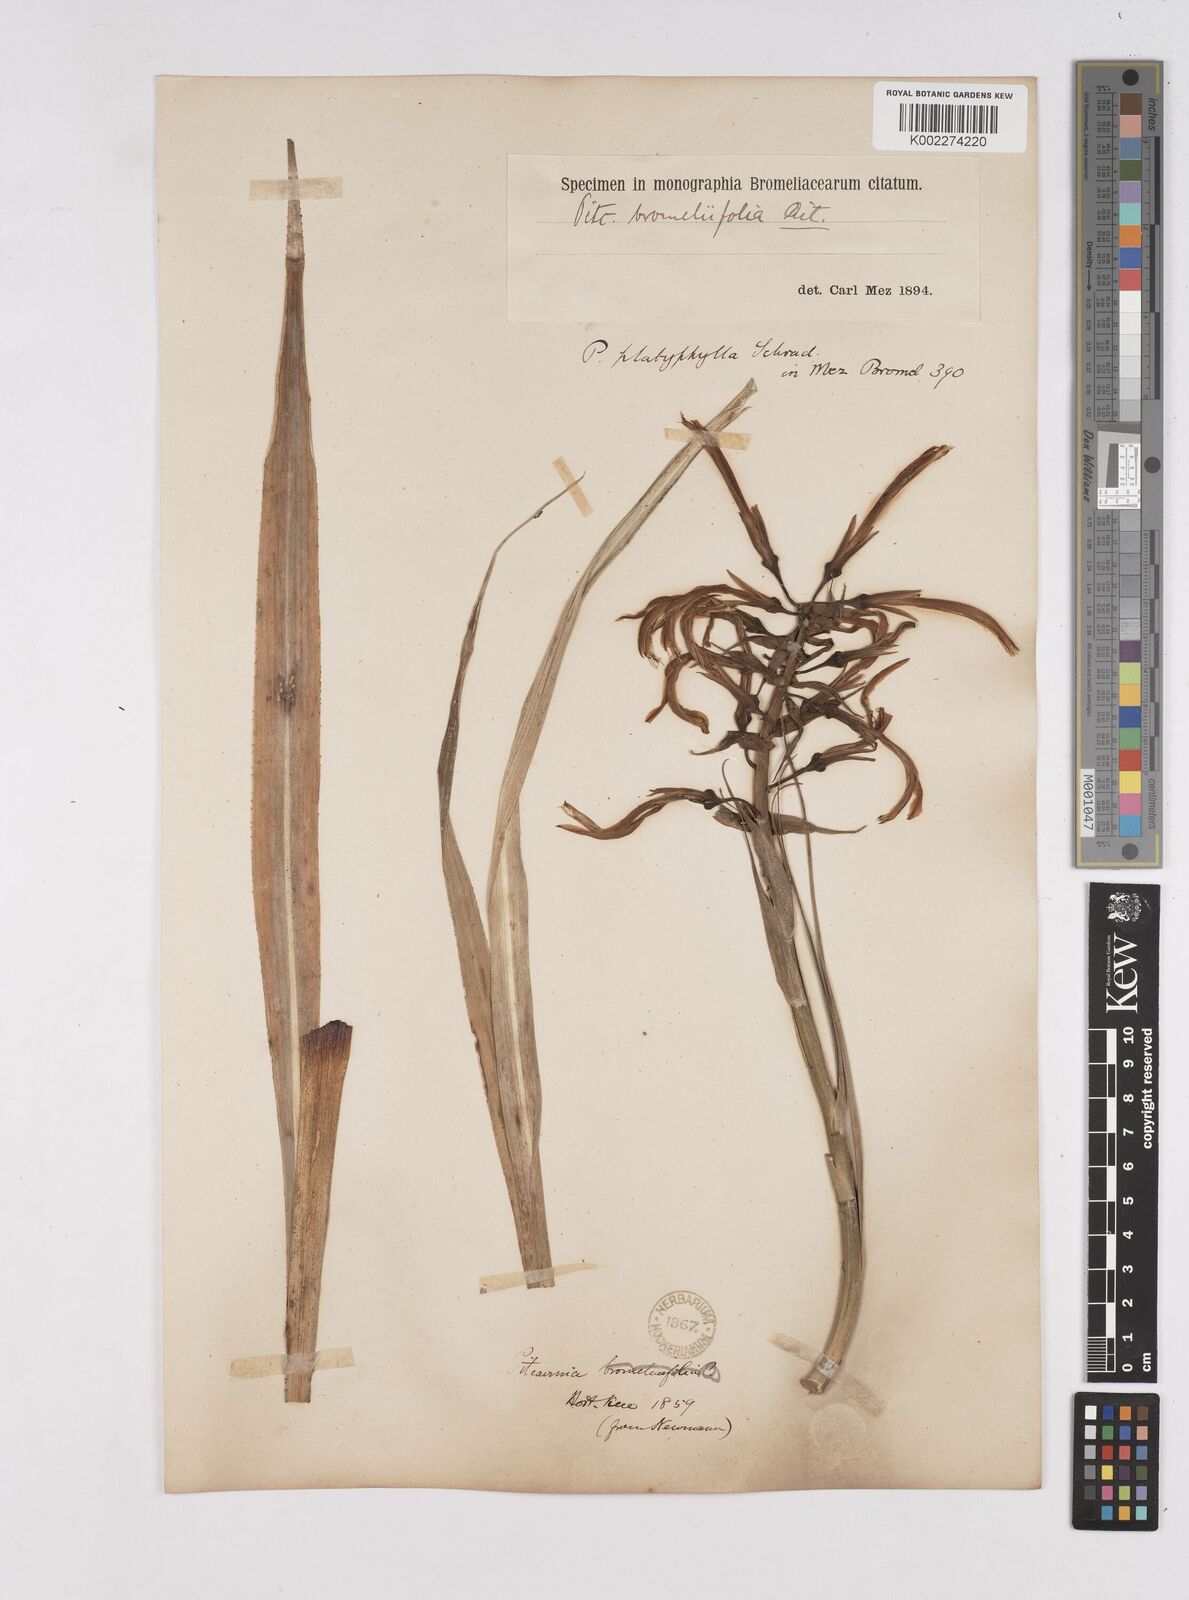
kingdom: Plantae
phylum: Tracheophyta
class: Liliopsida
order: Poales
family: Bromeliaceae
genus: Pitcairnia
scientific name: Pitcairnia angustifolia
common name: Clapper
